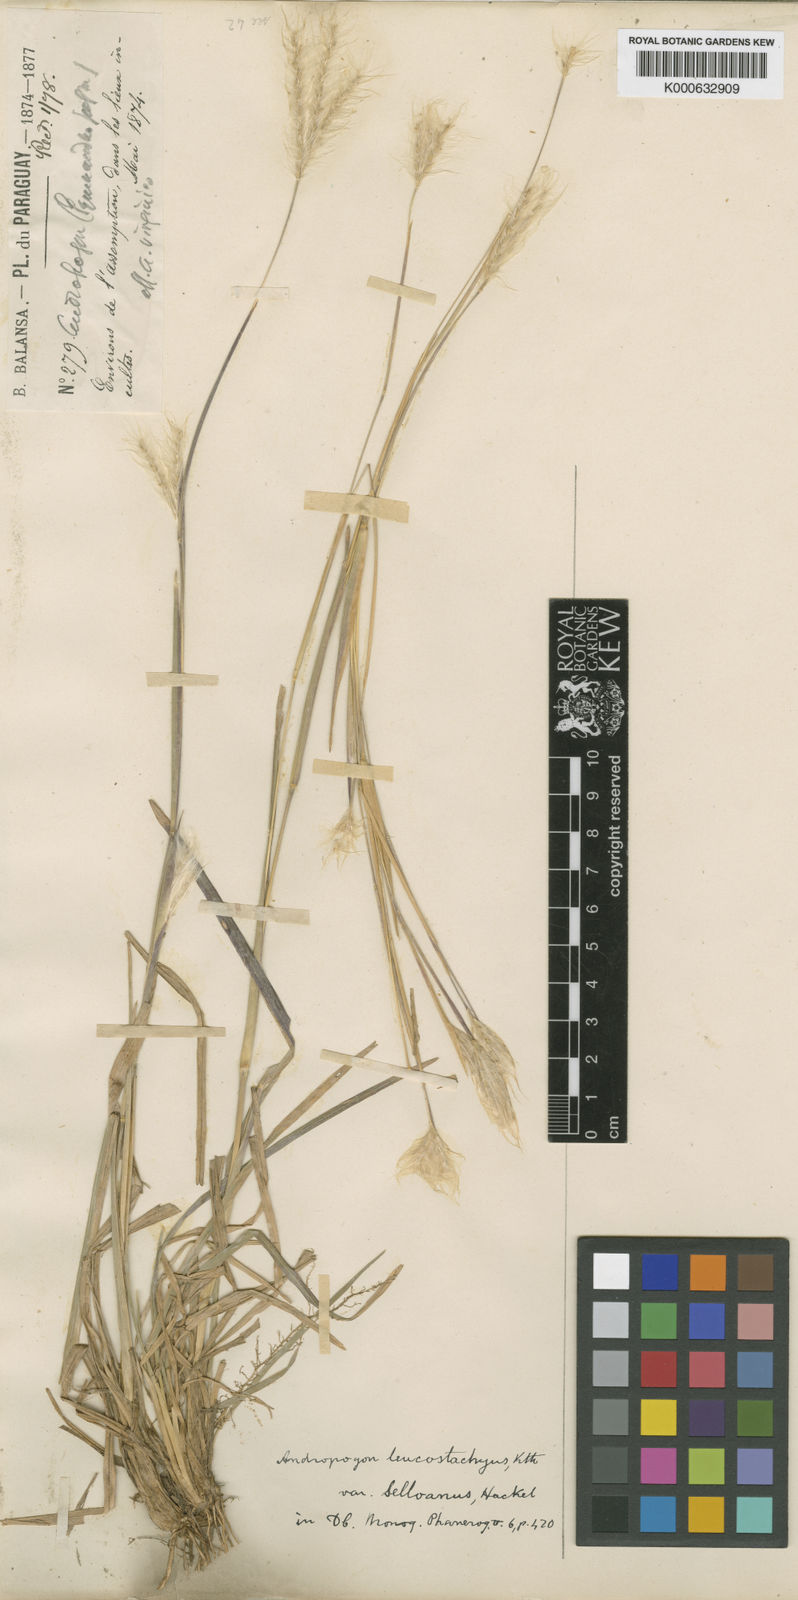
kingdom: Plantae
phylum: Tracheophyta
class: Liliopsida
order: Poales
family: Poaceae
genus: Andropogon
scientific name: Andropogon selloanus
